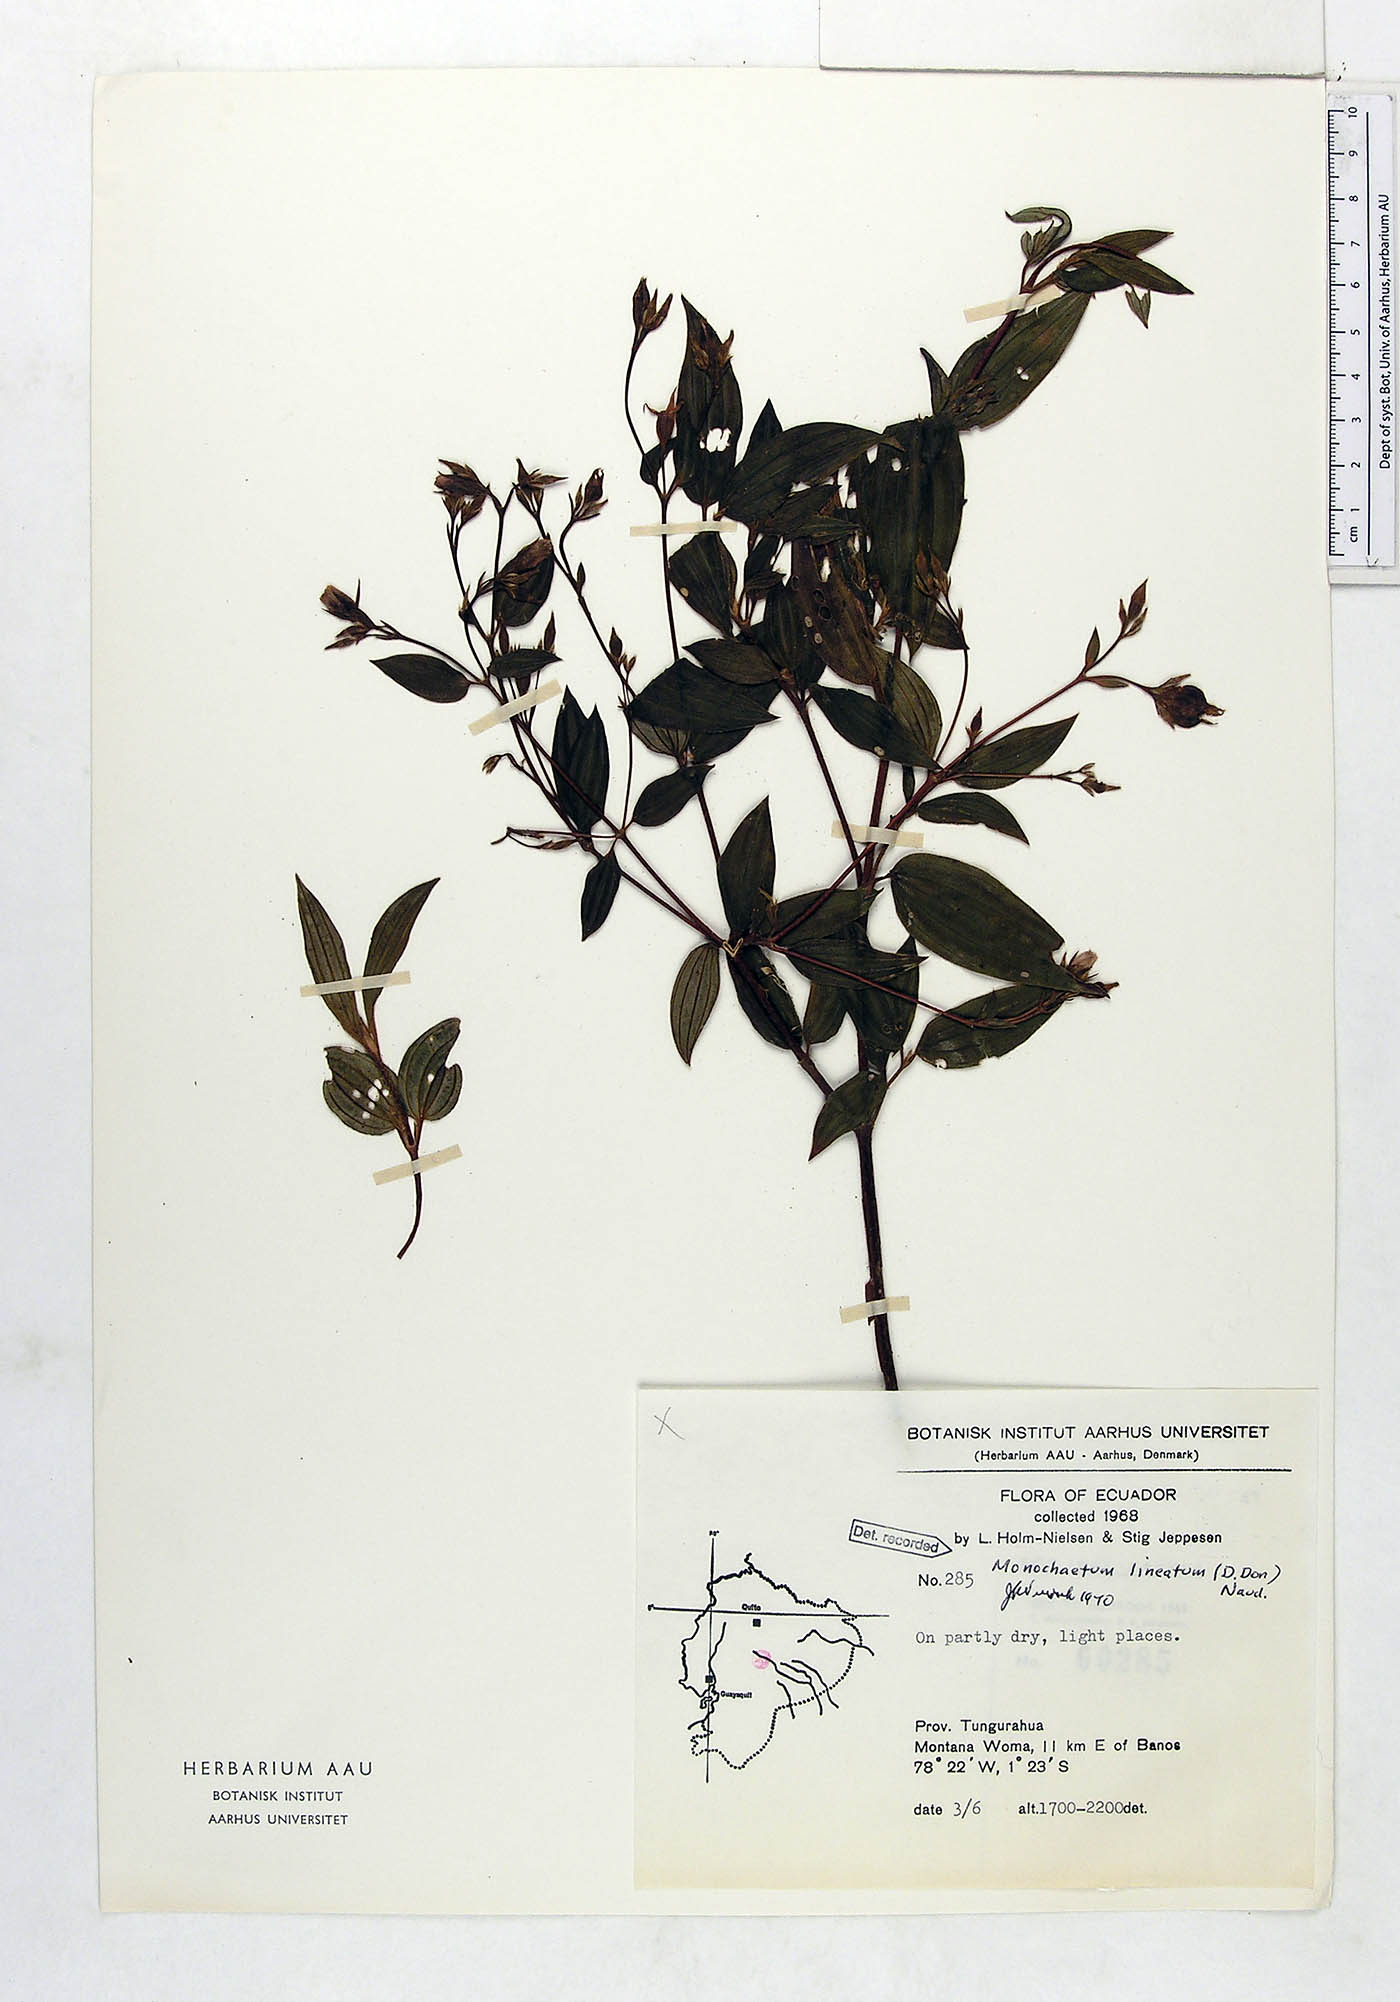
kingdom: Plantae
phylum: Tracheophyta
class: Magnoliopsida
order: Myrtales
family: Melastomataceae
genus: Monochaetum
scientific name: Monochaetum lineatum
